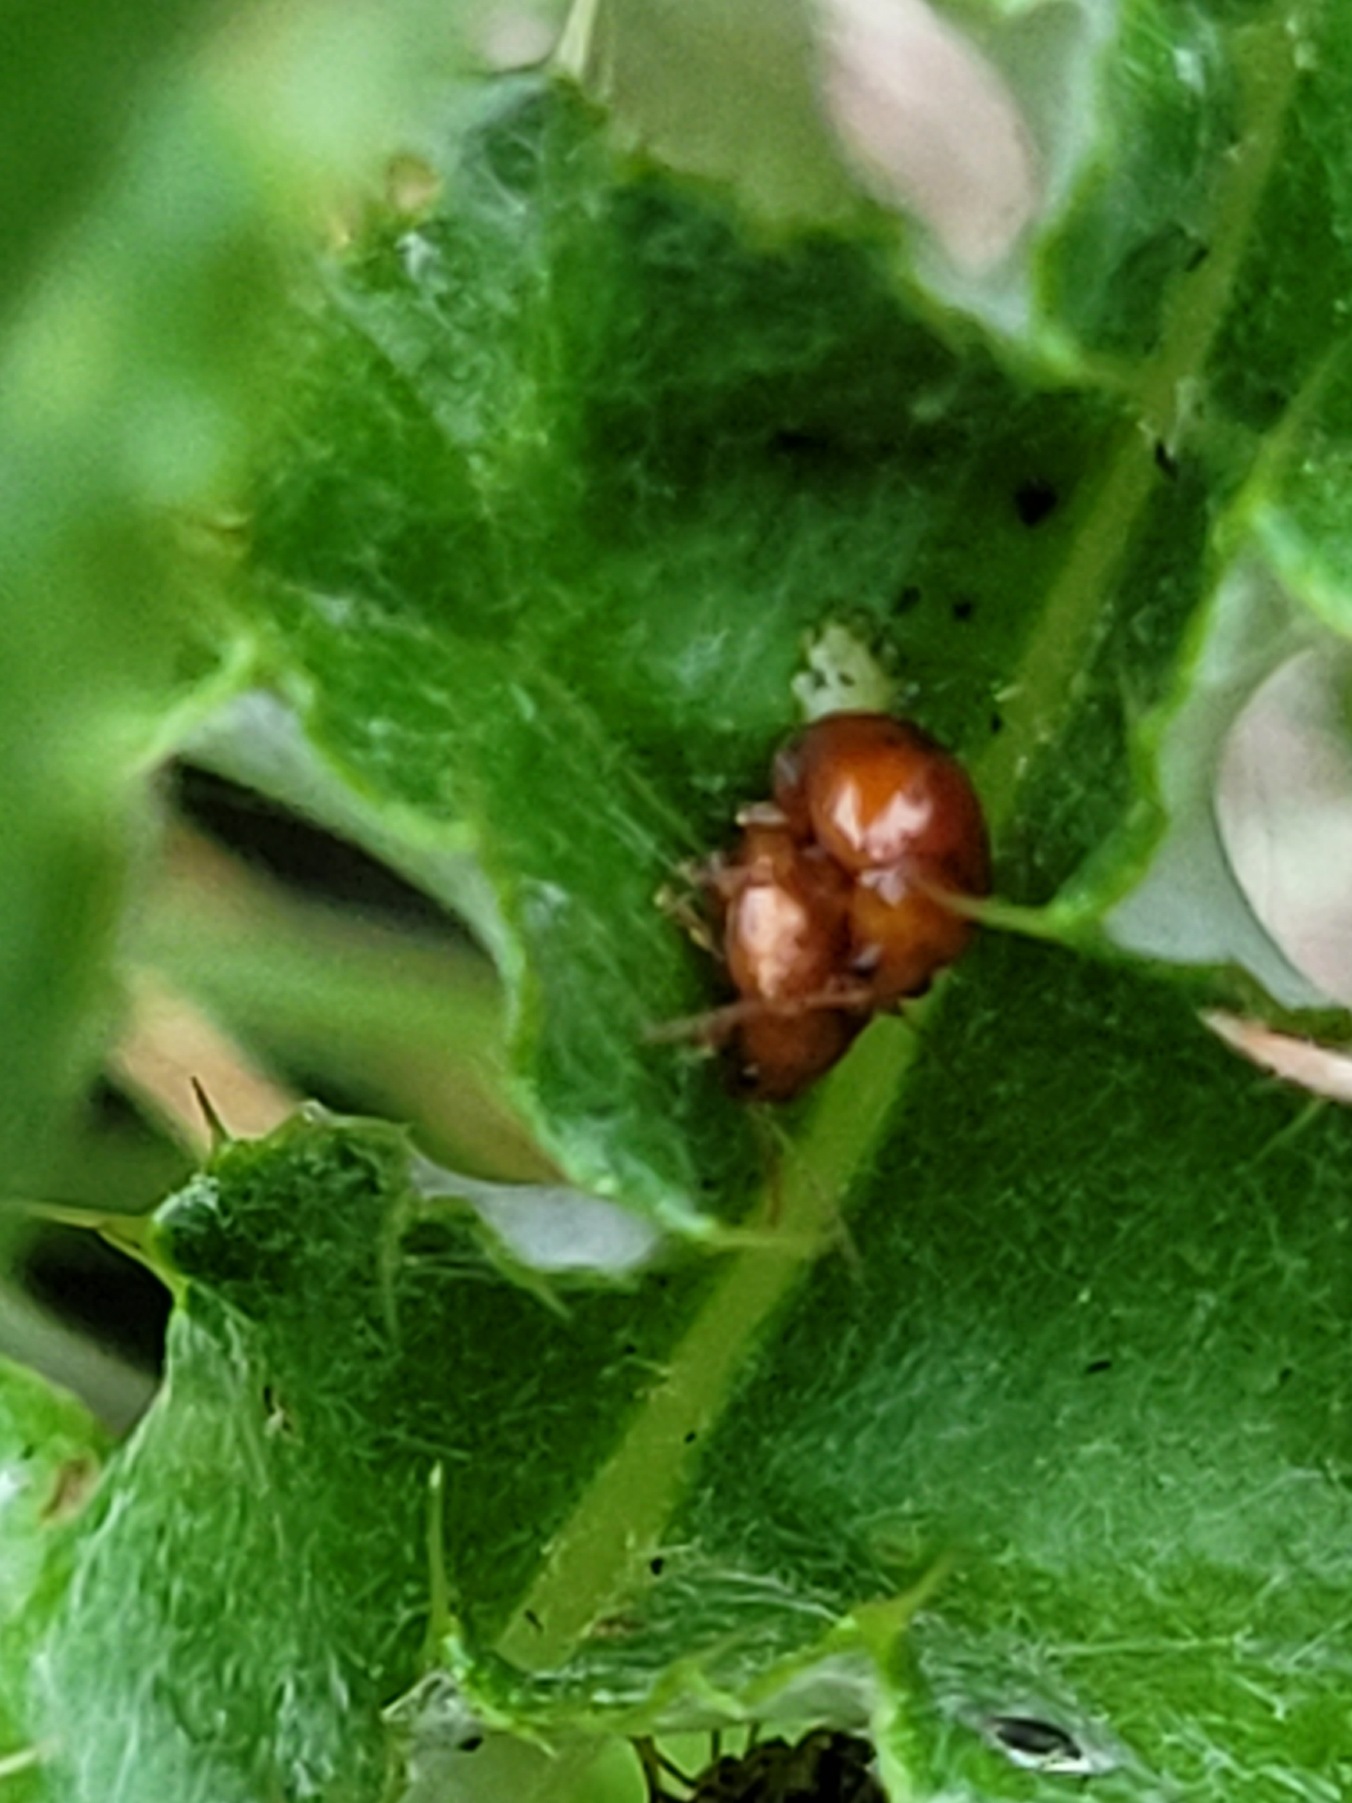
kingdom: Animalia
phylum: Arthropoda
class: Insecta
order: Coleoptera
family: Chrysomelidae
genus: Pistosia
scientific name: Pistosia testacea
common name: Tidselkuglebille
